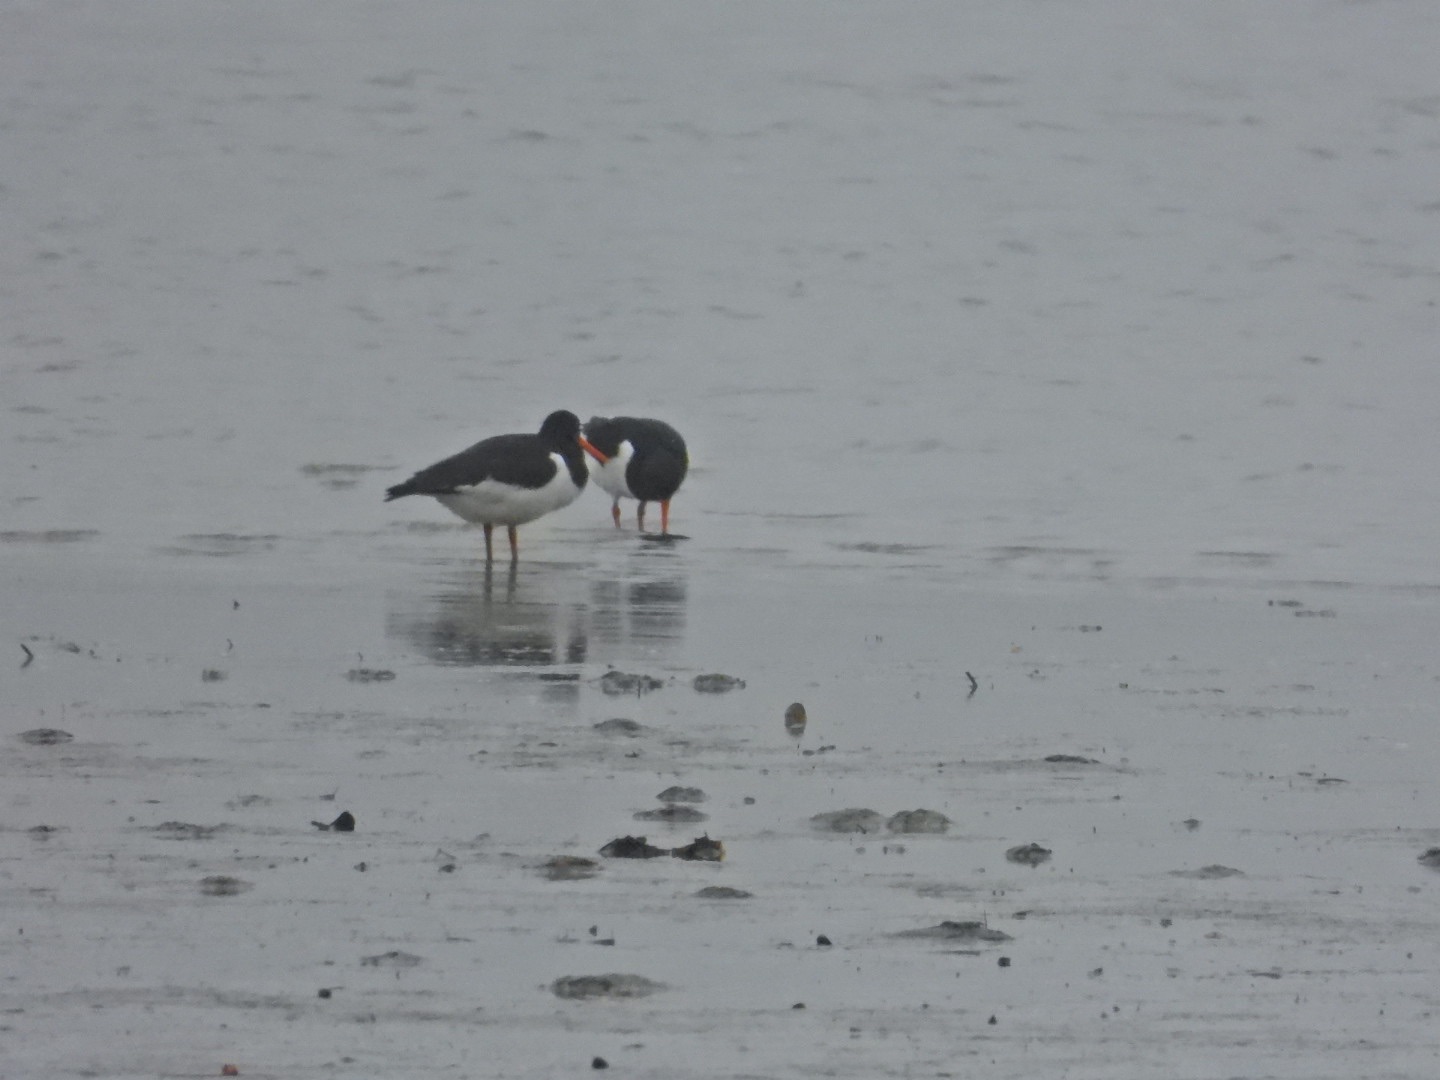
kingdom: Animalia
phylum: Chordata
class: Aves
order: Charadriiformes
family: Haematopodidae
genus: Haematopus
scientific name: Haematopus ostralegus
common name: Strandskade
